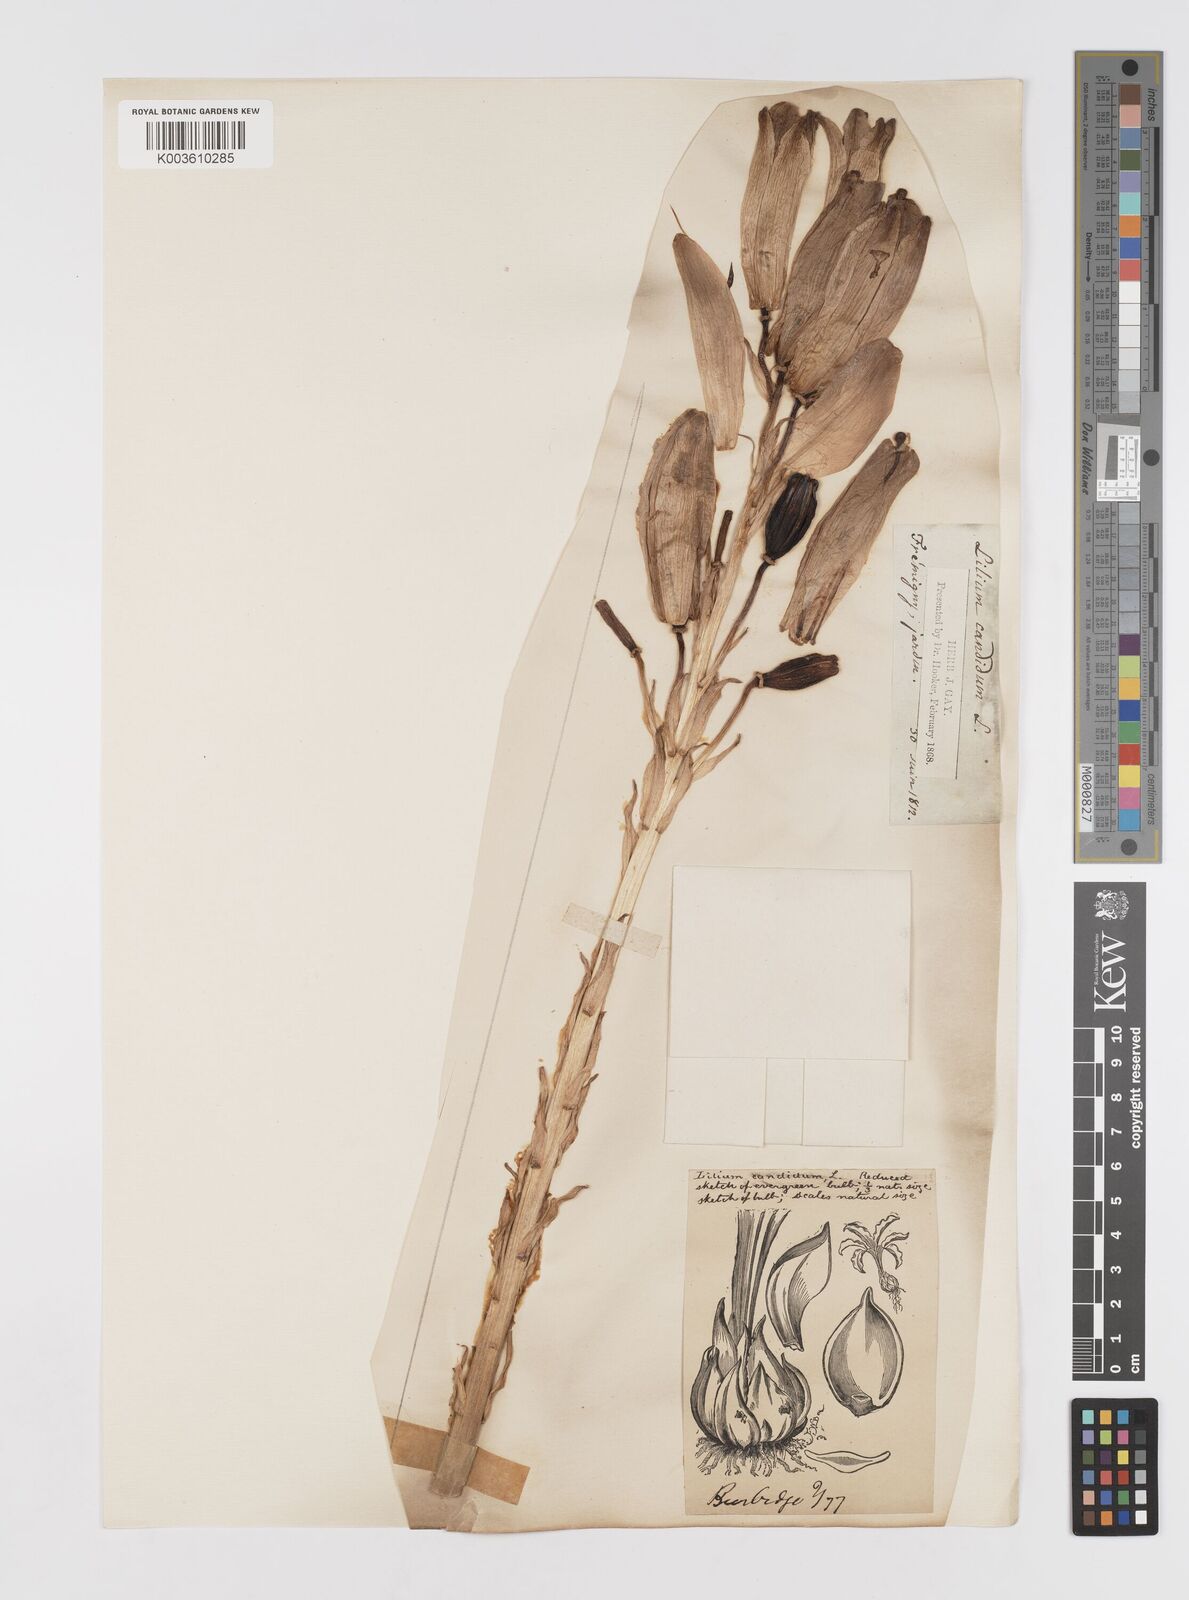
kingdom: Plantae
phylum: Tracheophyta
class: Liliopsida
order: Liliales
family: Liliaceae
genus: Lilium
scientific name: Lilium candidum
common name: Madonna lily
